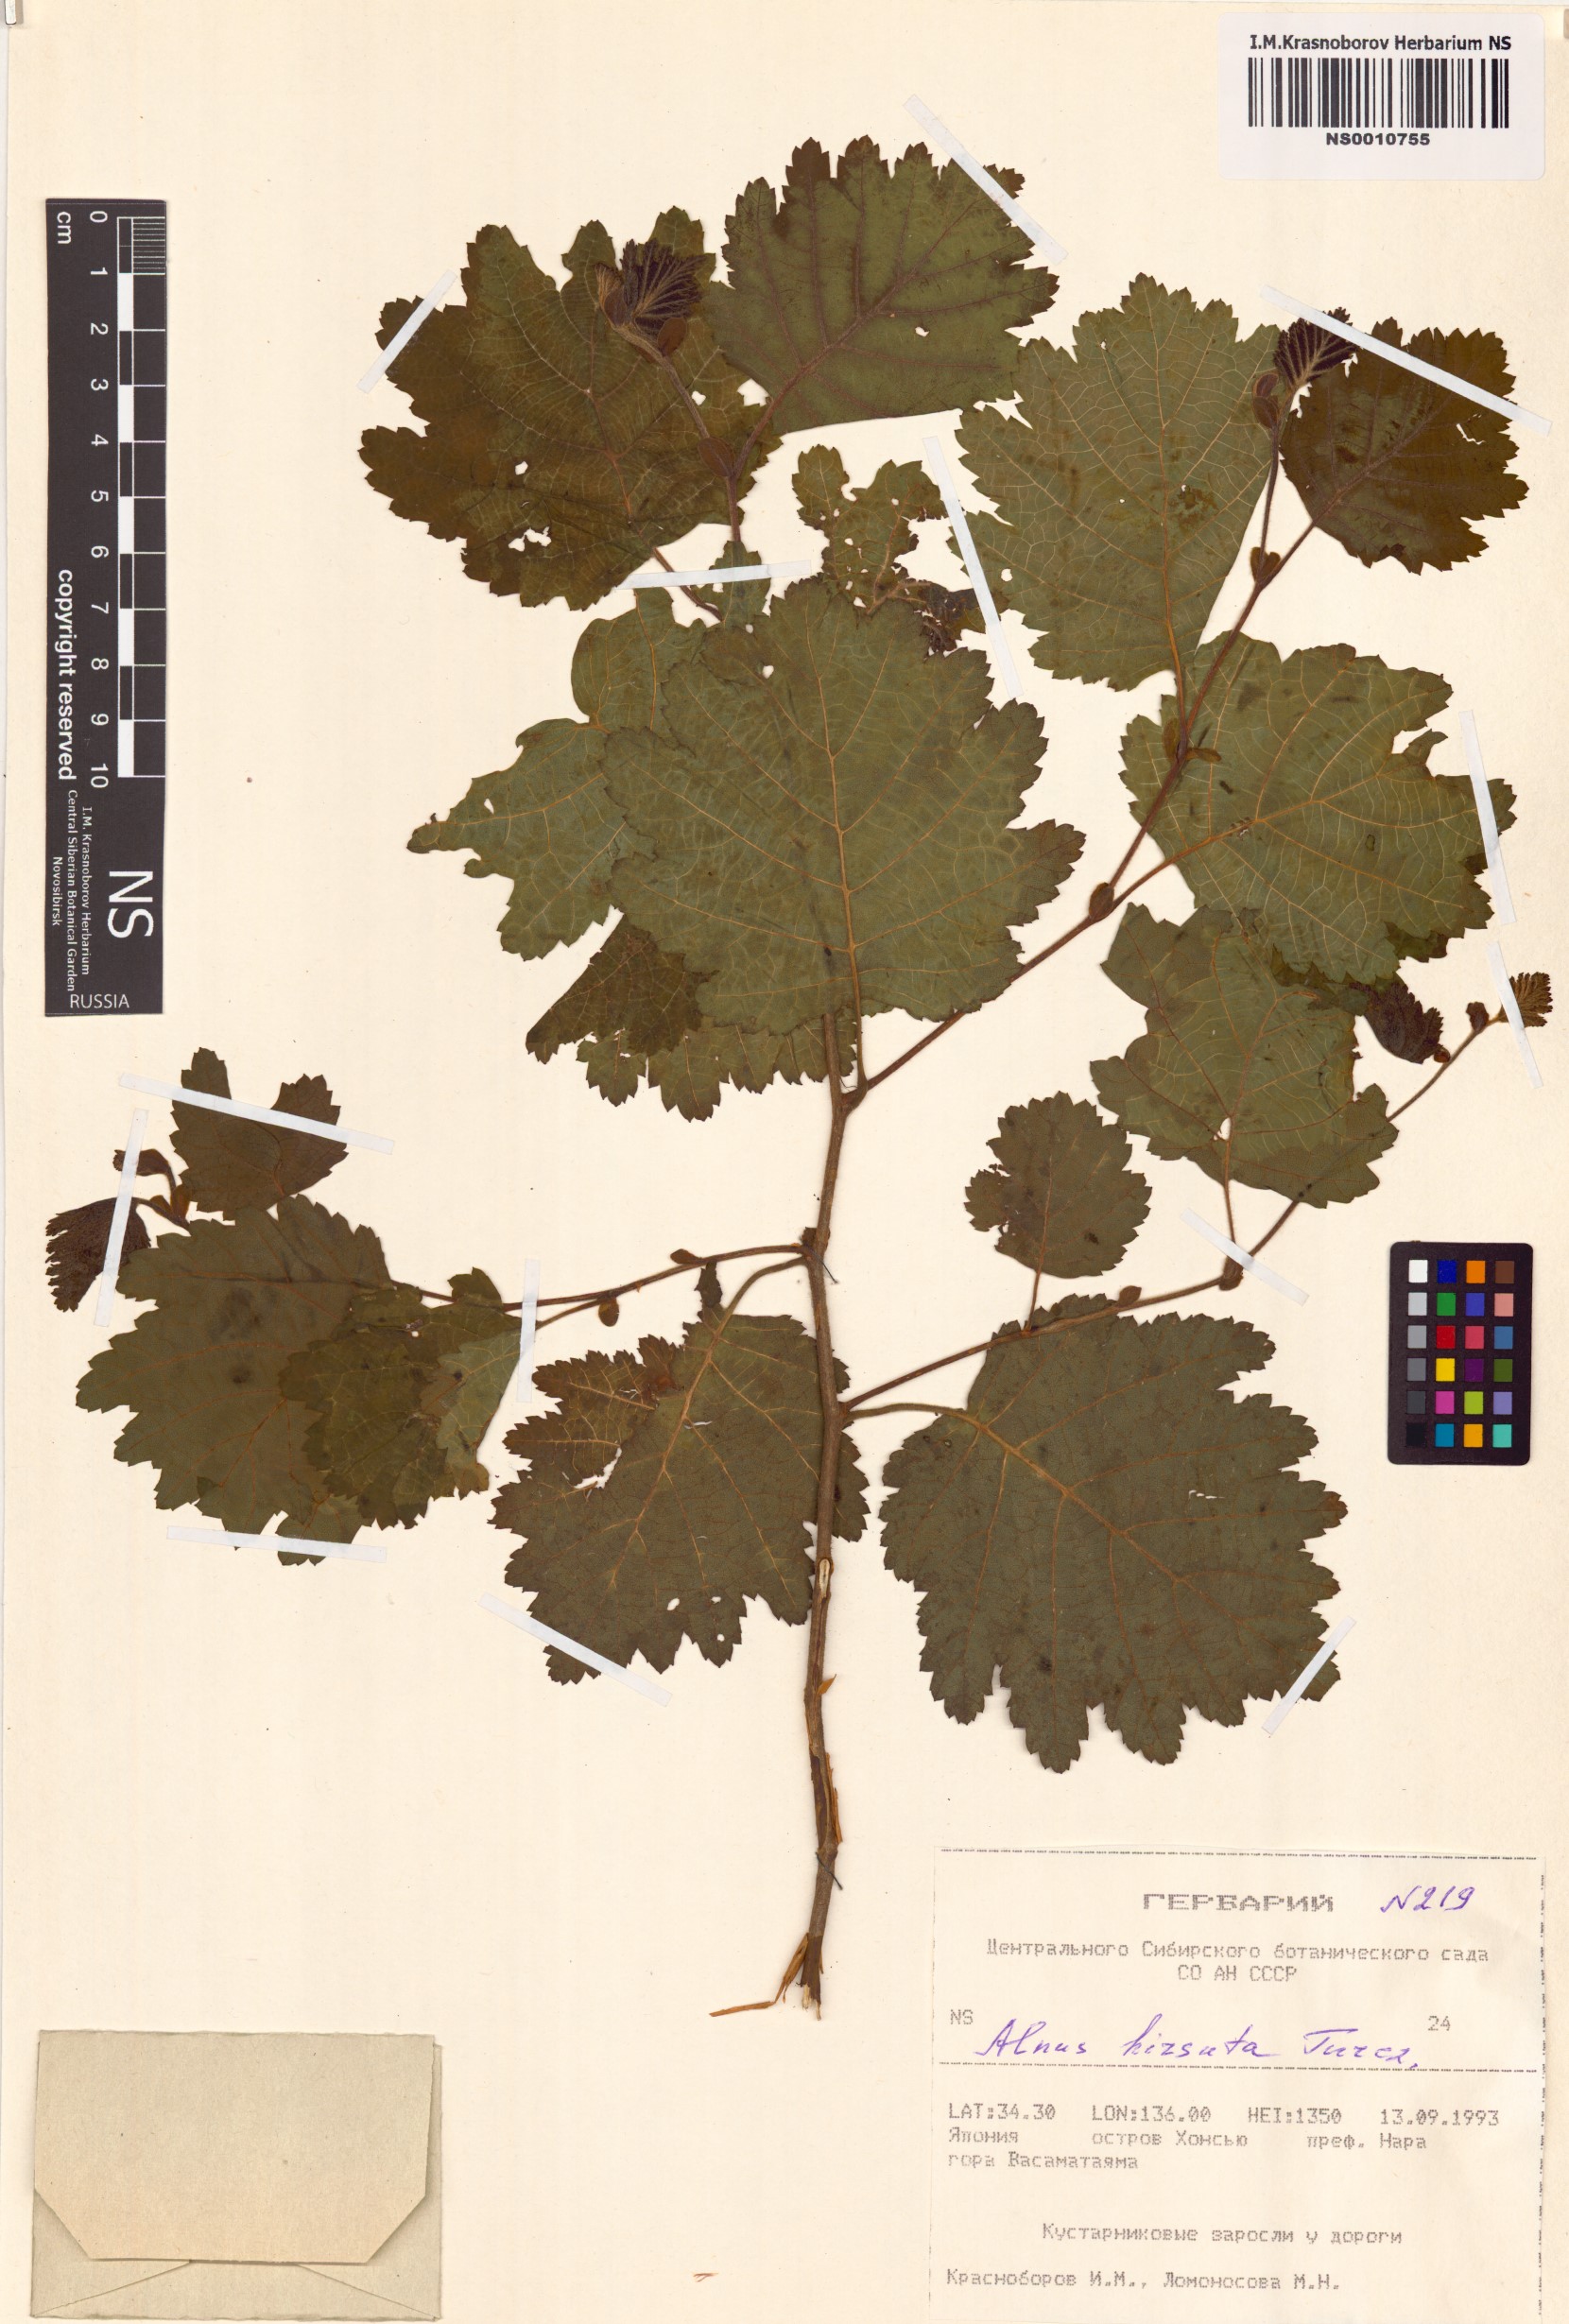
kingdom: Plantae
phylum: Tracheophyta
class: Magnoliopsida
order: Fagales
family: Betulaceae
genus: Alnus
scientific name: Alnus hirsuta
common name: Manchurian alder
